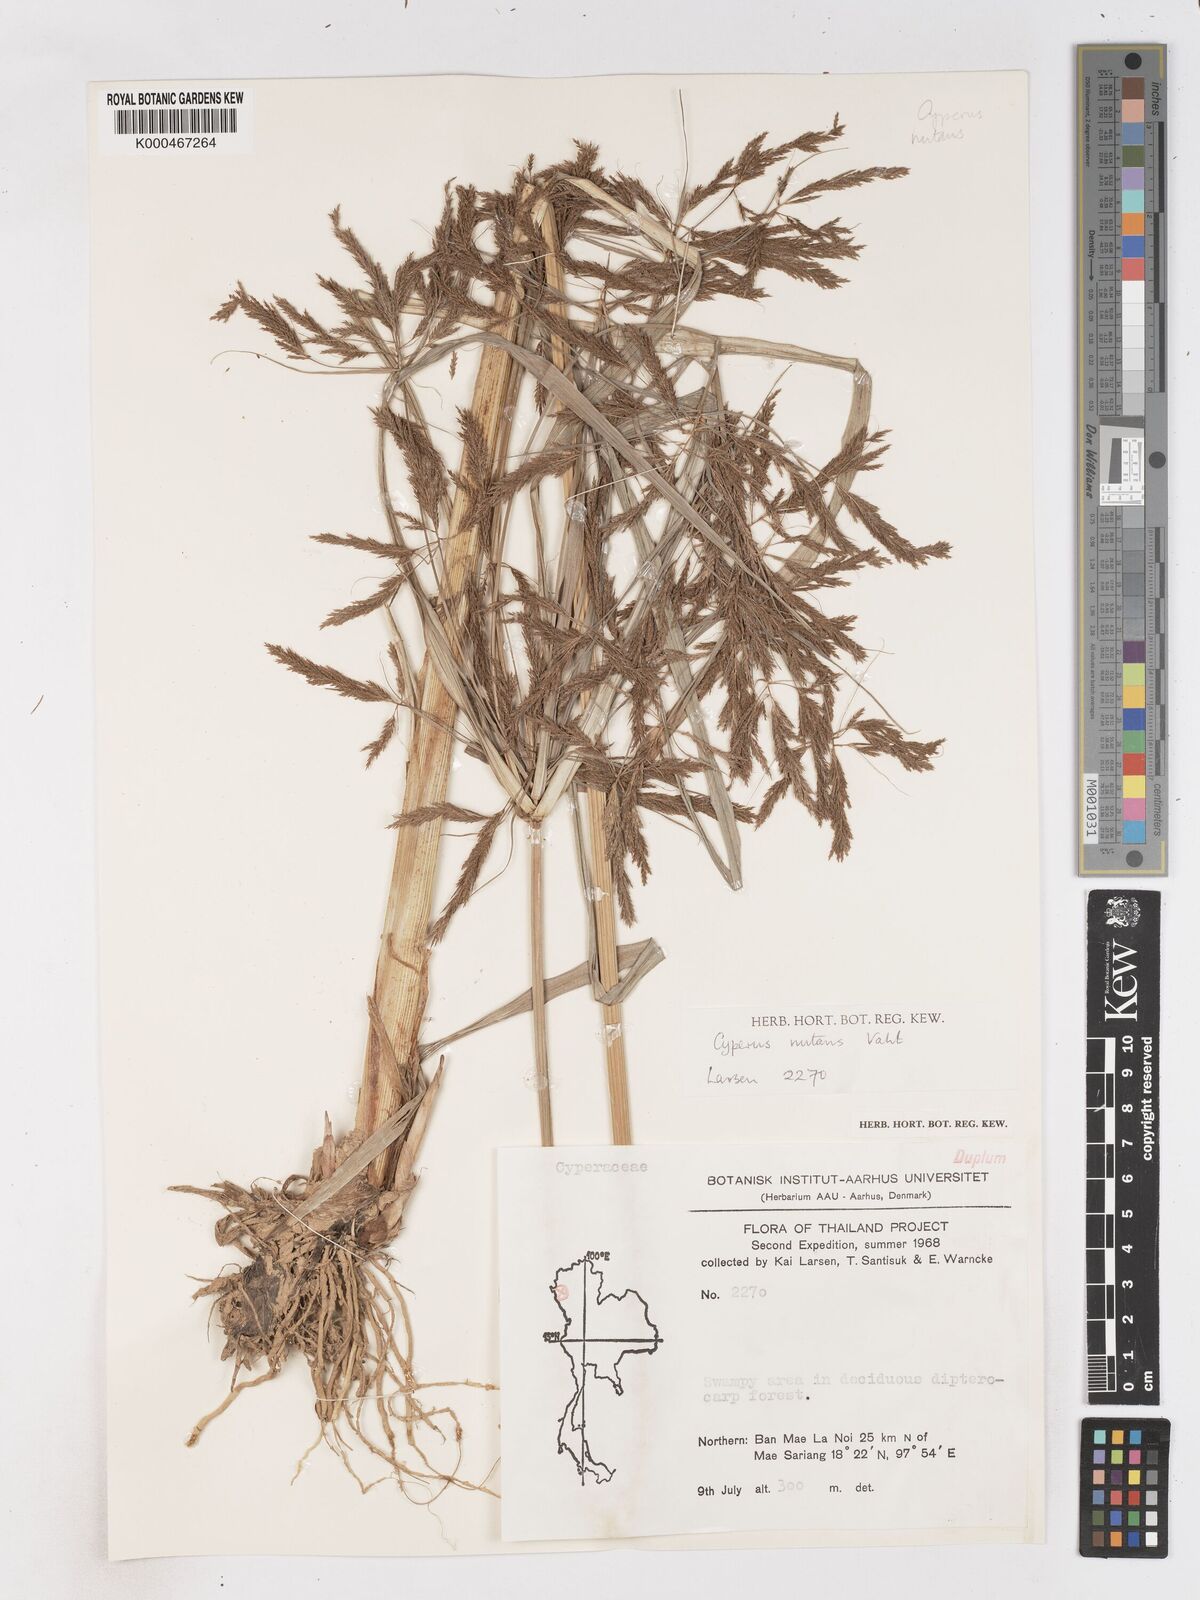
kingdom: Plantae
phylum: Tracheophyta
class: Liliopsida
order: Poales
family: Cyperaceae
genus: Cyperus
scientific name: Cyperus nutans
